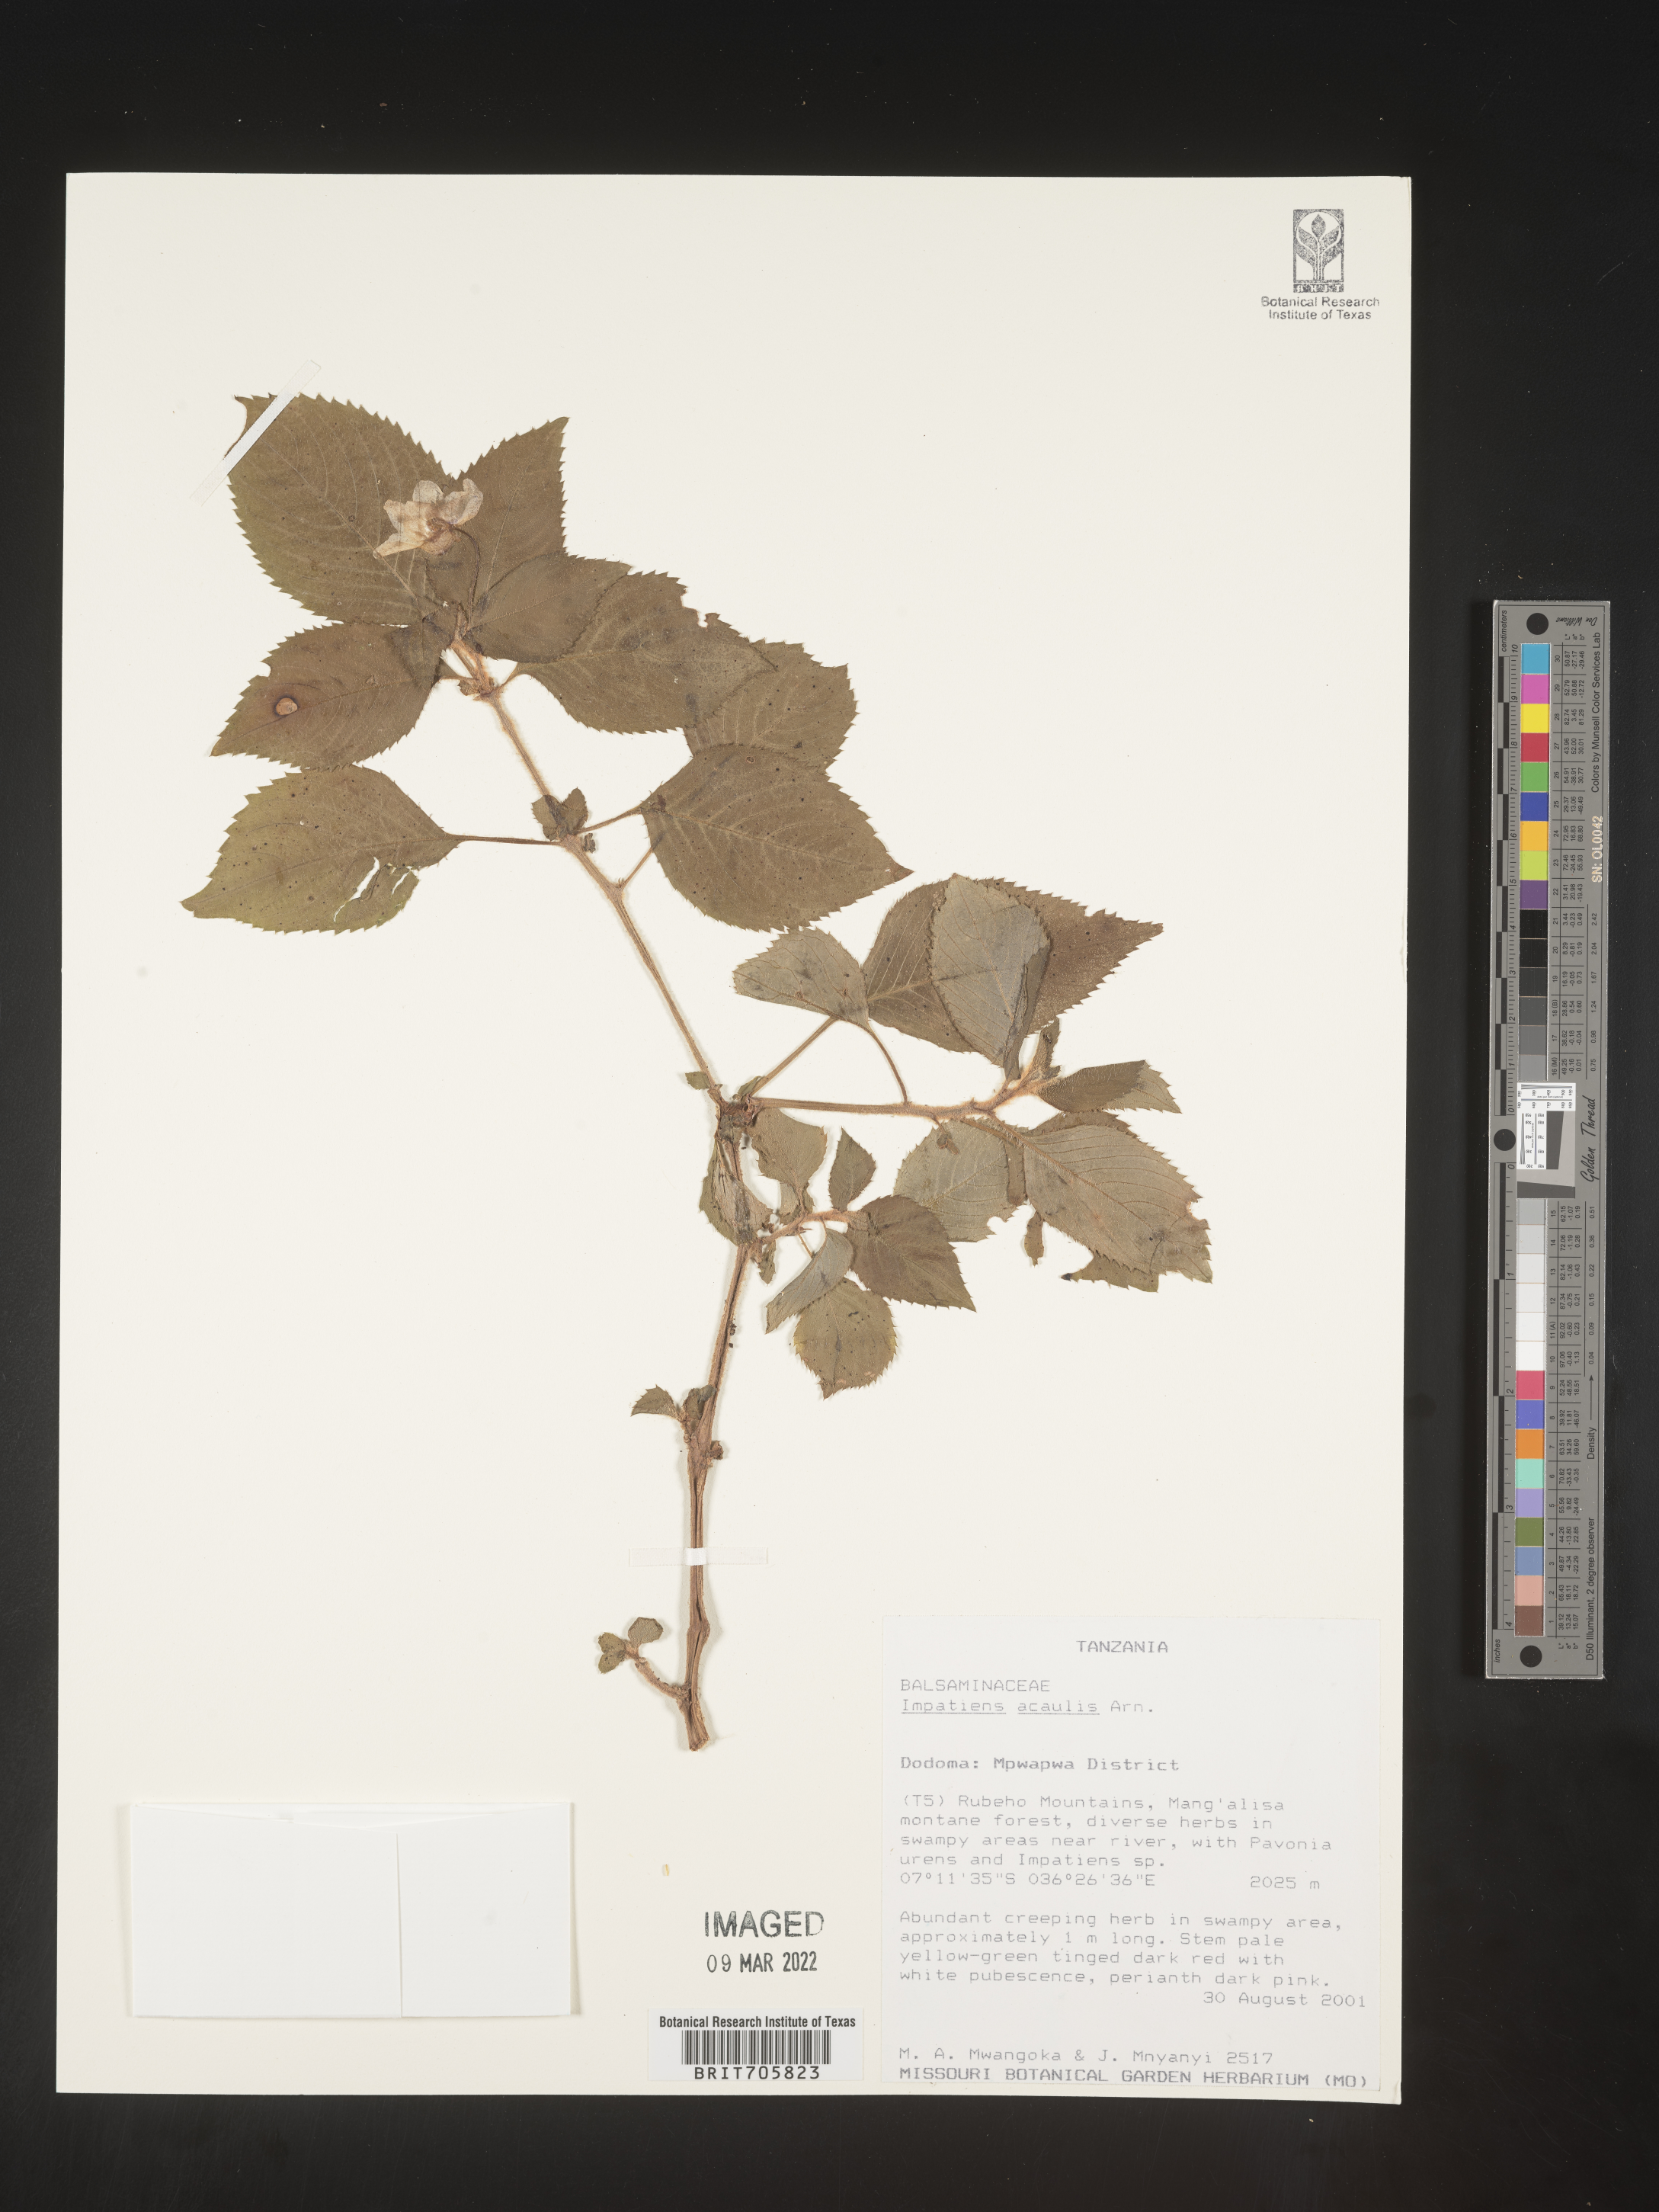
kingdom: Plantae
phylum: Tracheophyta
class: Magnoliopsida
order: Ericales
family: Balsaminaceae
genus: Impatiens
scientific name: Impatiens
